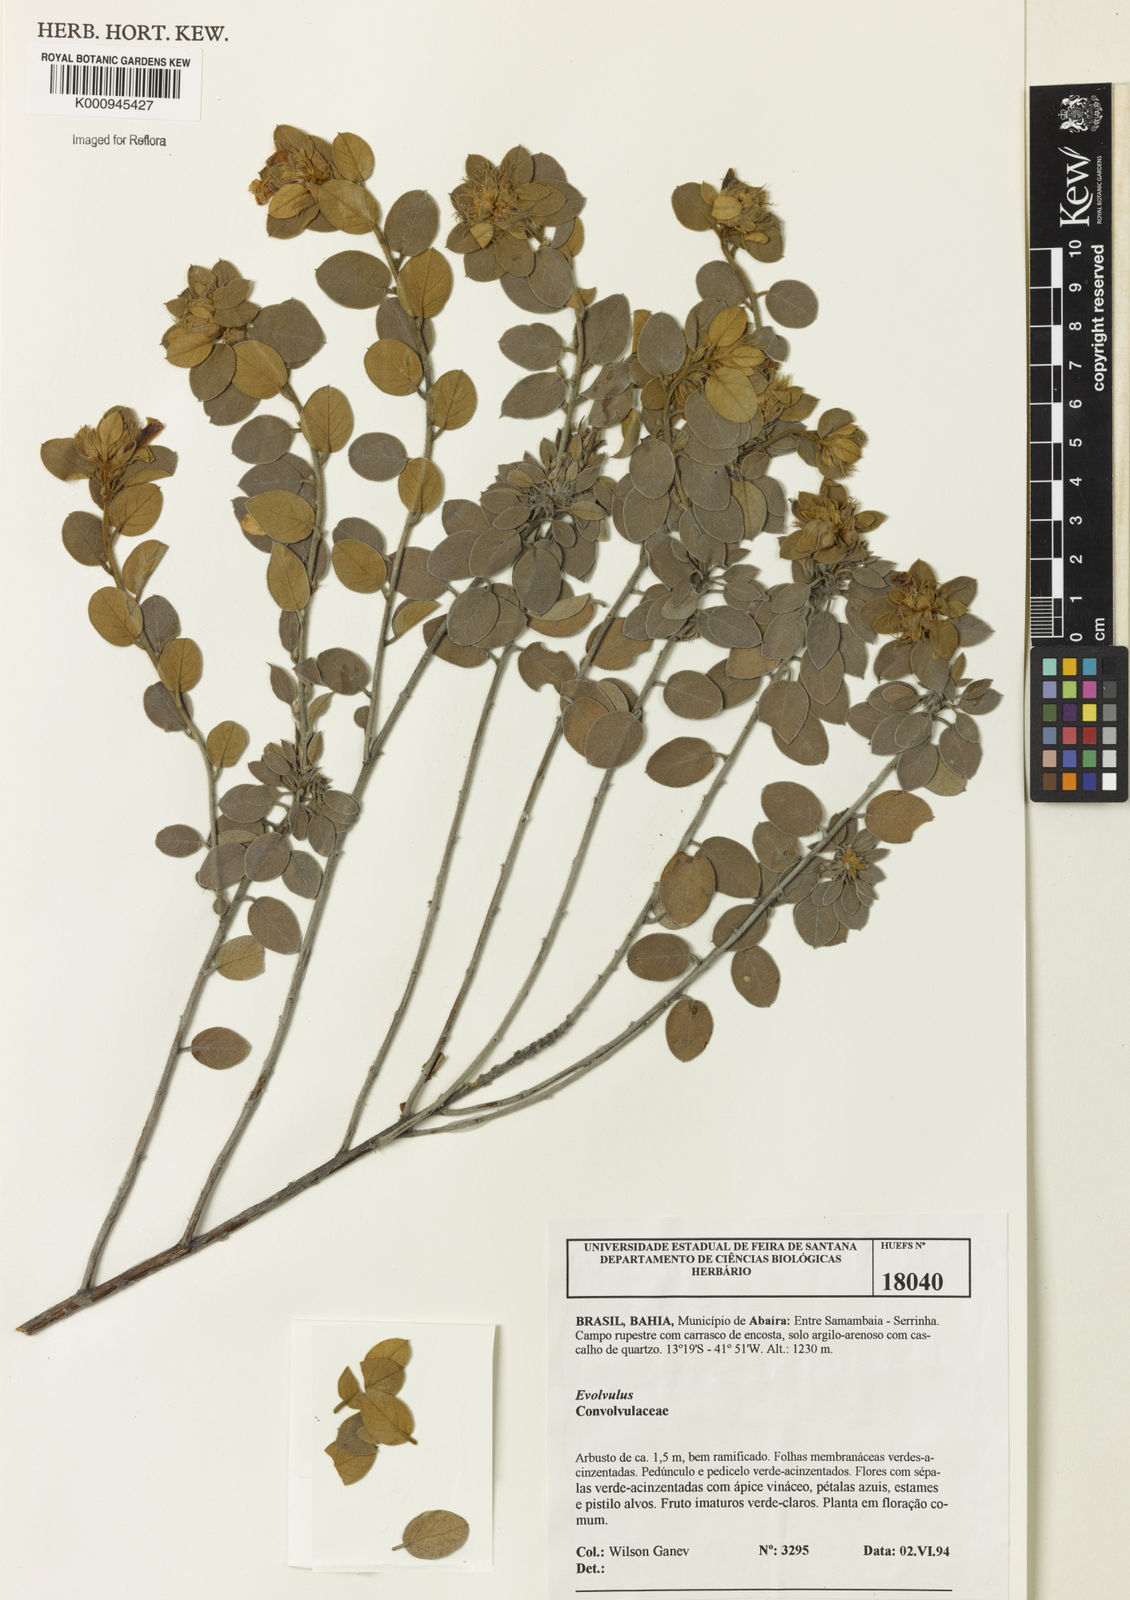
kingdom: Plantae
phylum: Tracheophyta
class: Magnoliopsida
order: Solanales
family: Convolvulaceae
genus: Jacquemontia
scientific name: Jacquemontia
